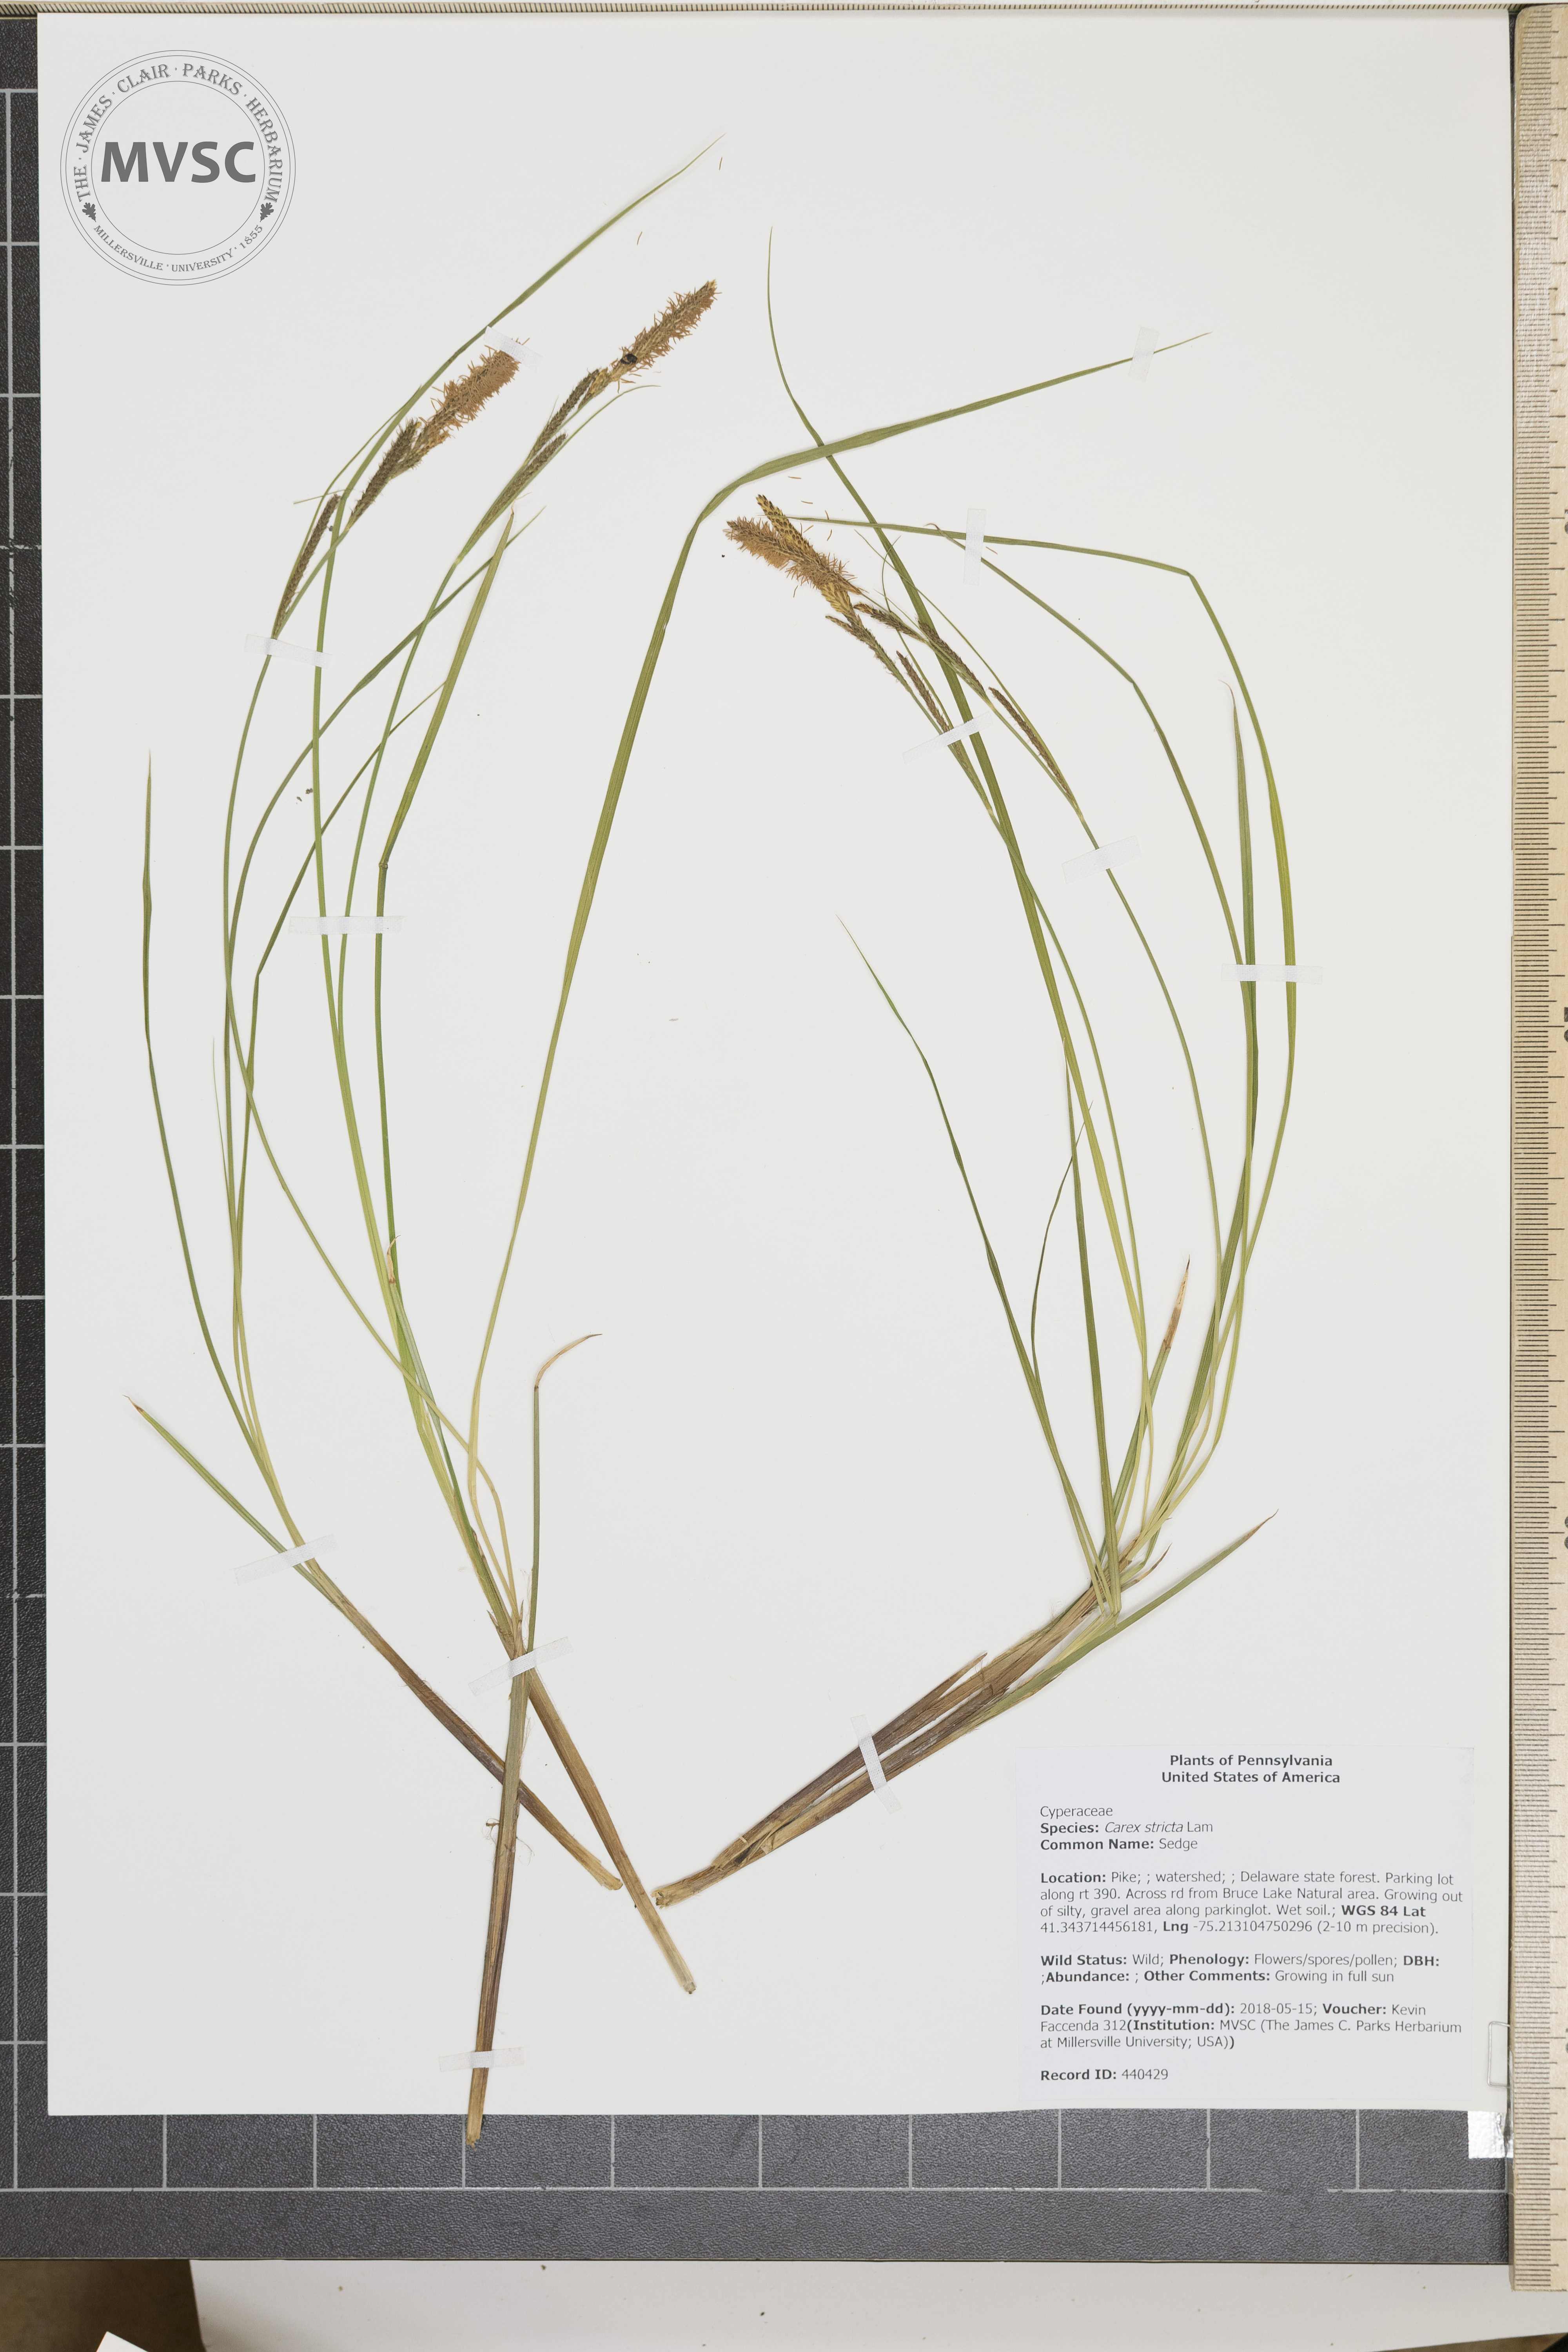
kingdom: Plantae
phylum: Tracheophyta
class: Liliopsida
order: Poales
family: Cyperaceae
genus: Carex
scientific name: Carex stricta
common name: Sedge
